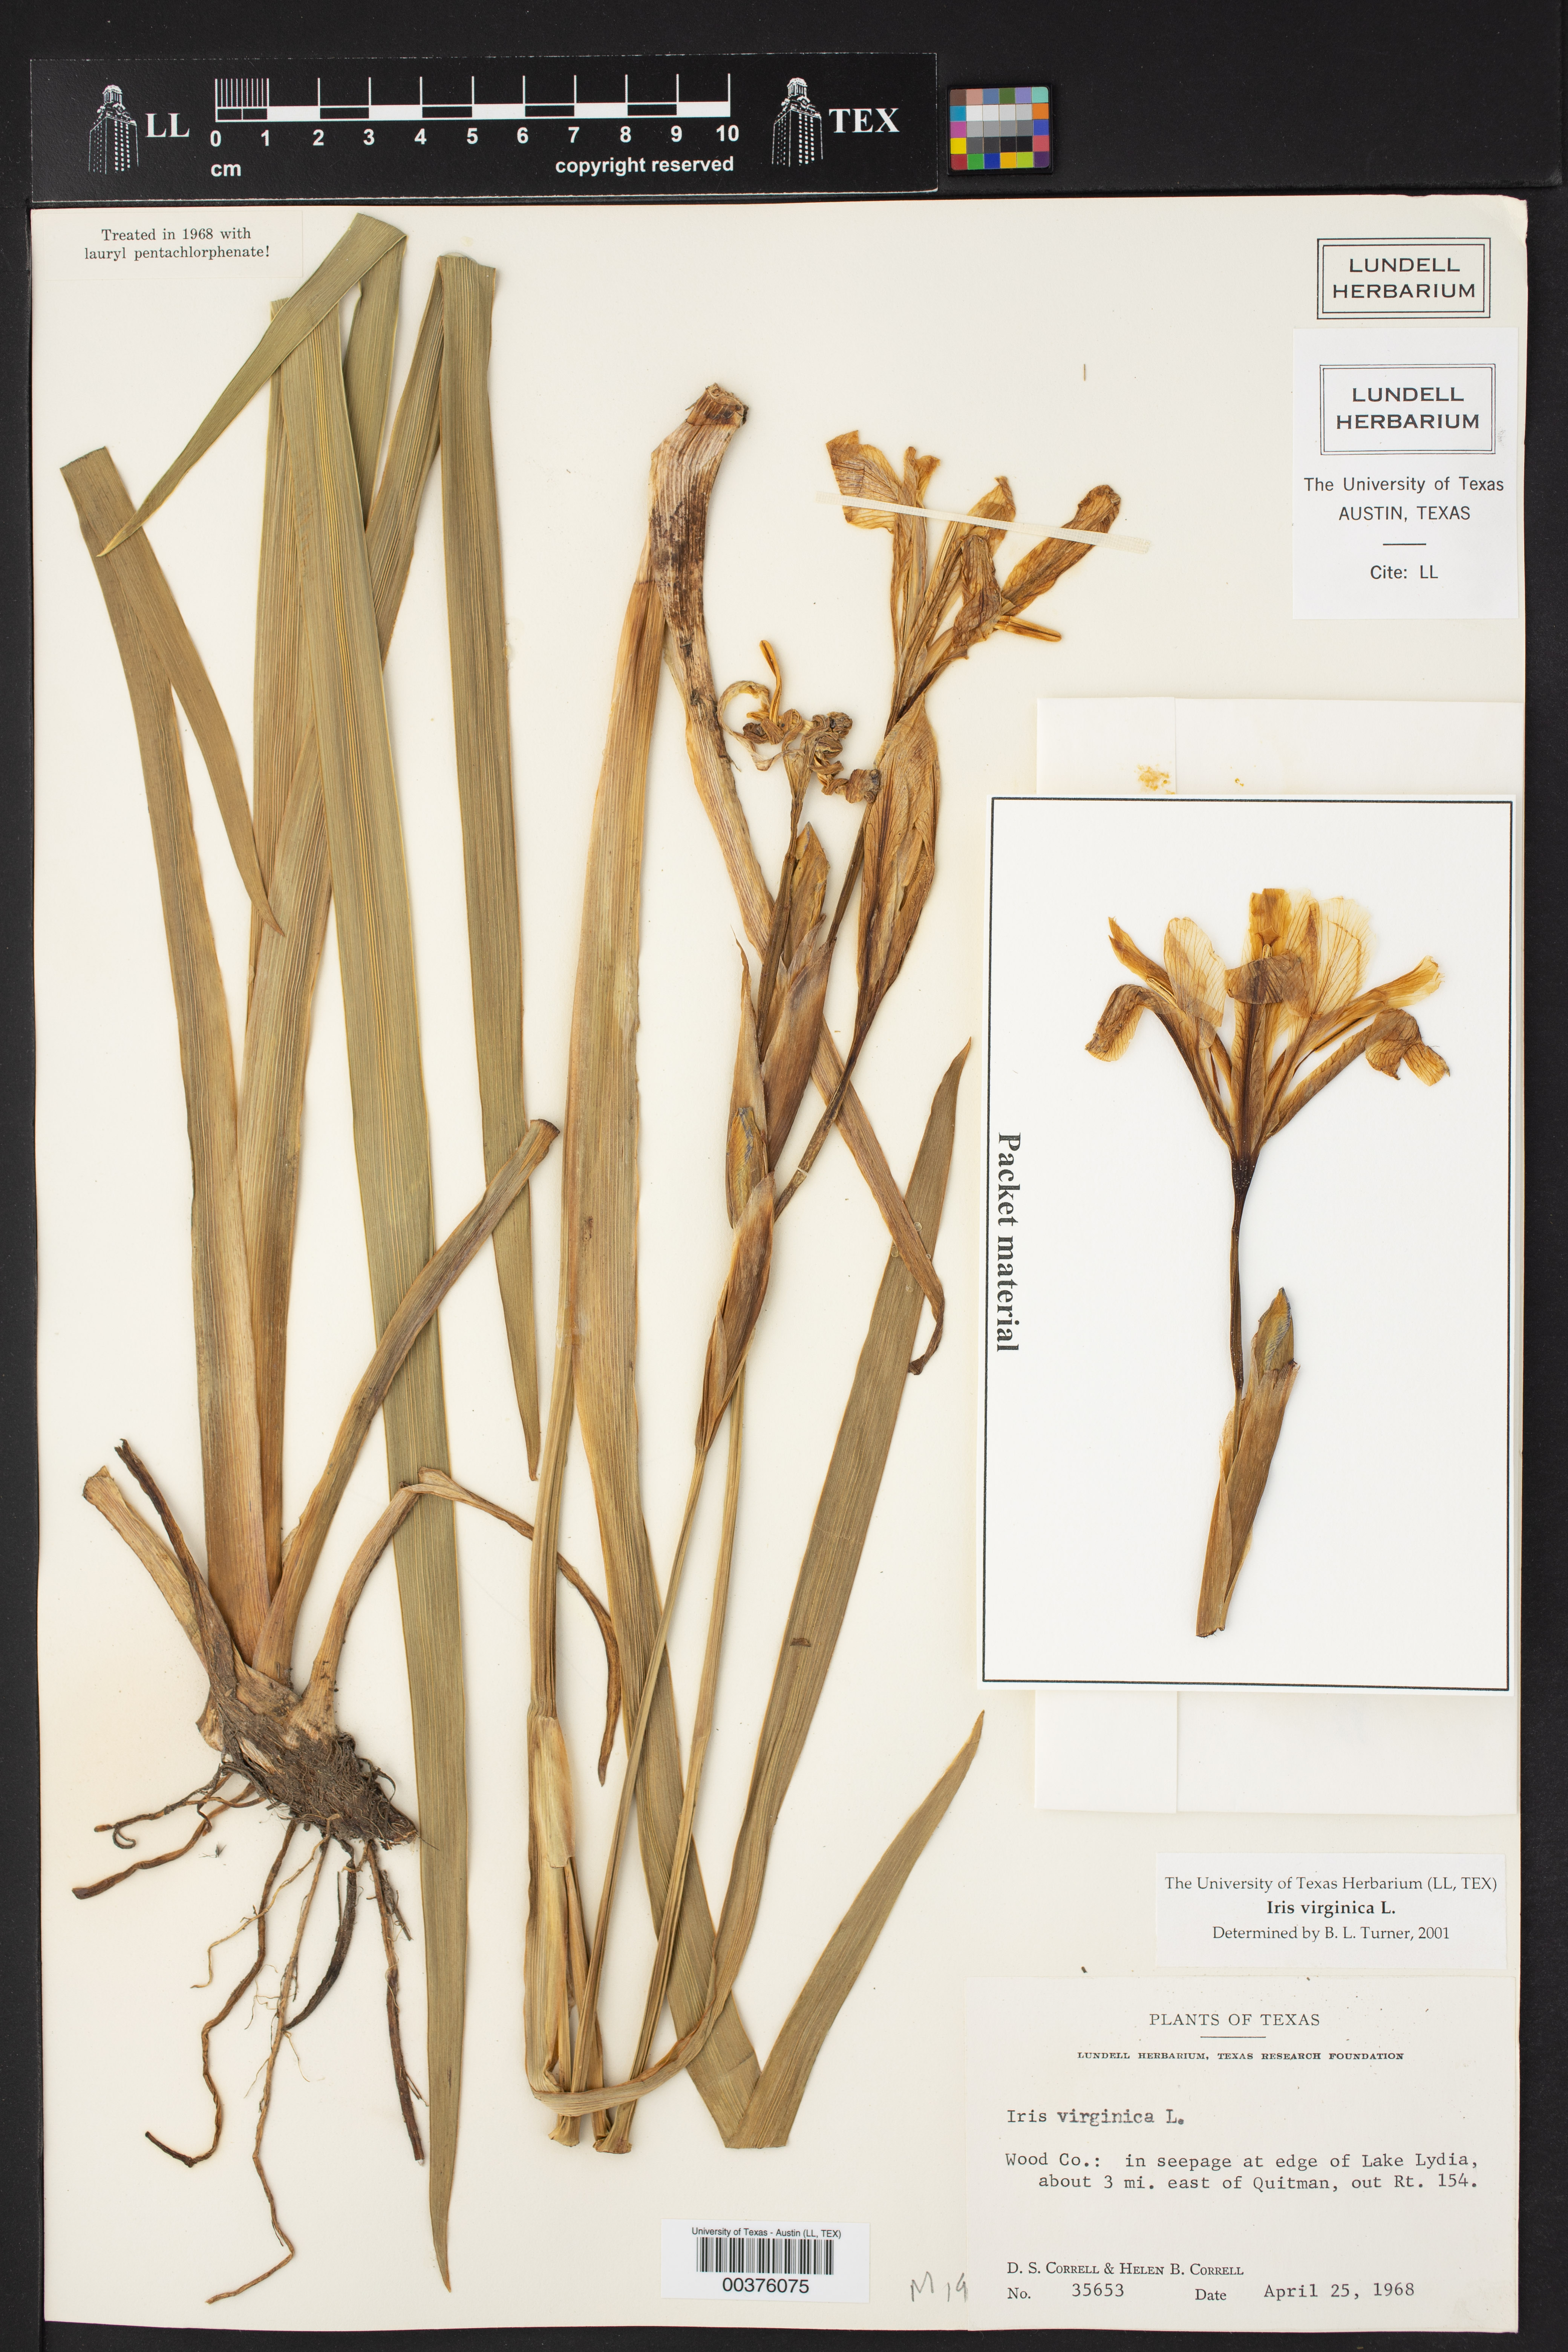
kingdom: Plantae
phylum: Tracheophyta
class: Liliopsida
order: Asparagales
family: Iridaceae
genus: Iris
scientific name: Iris virginica
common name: Southern blue flag
